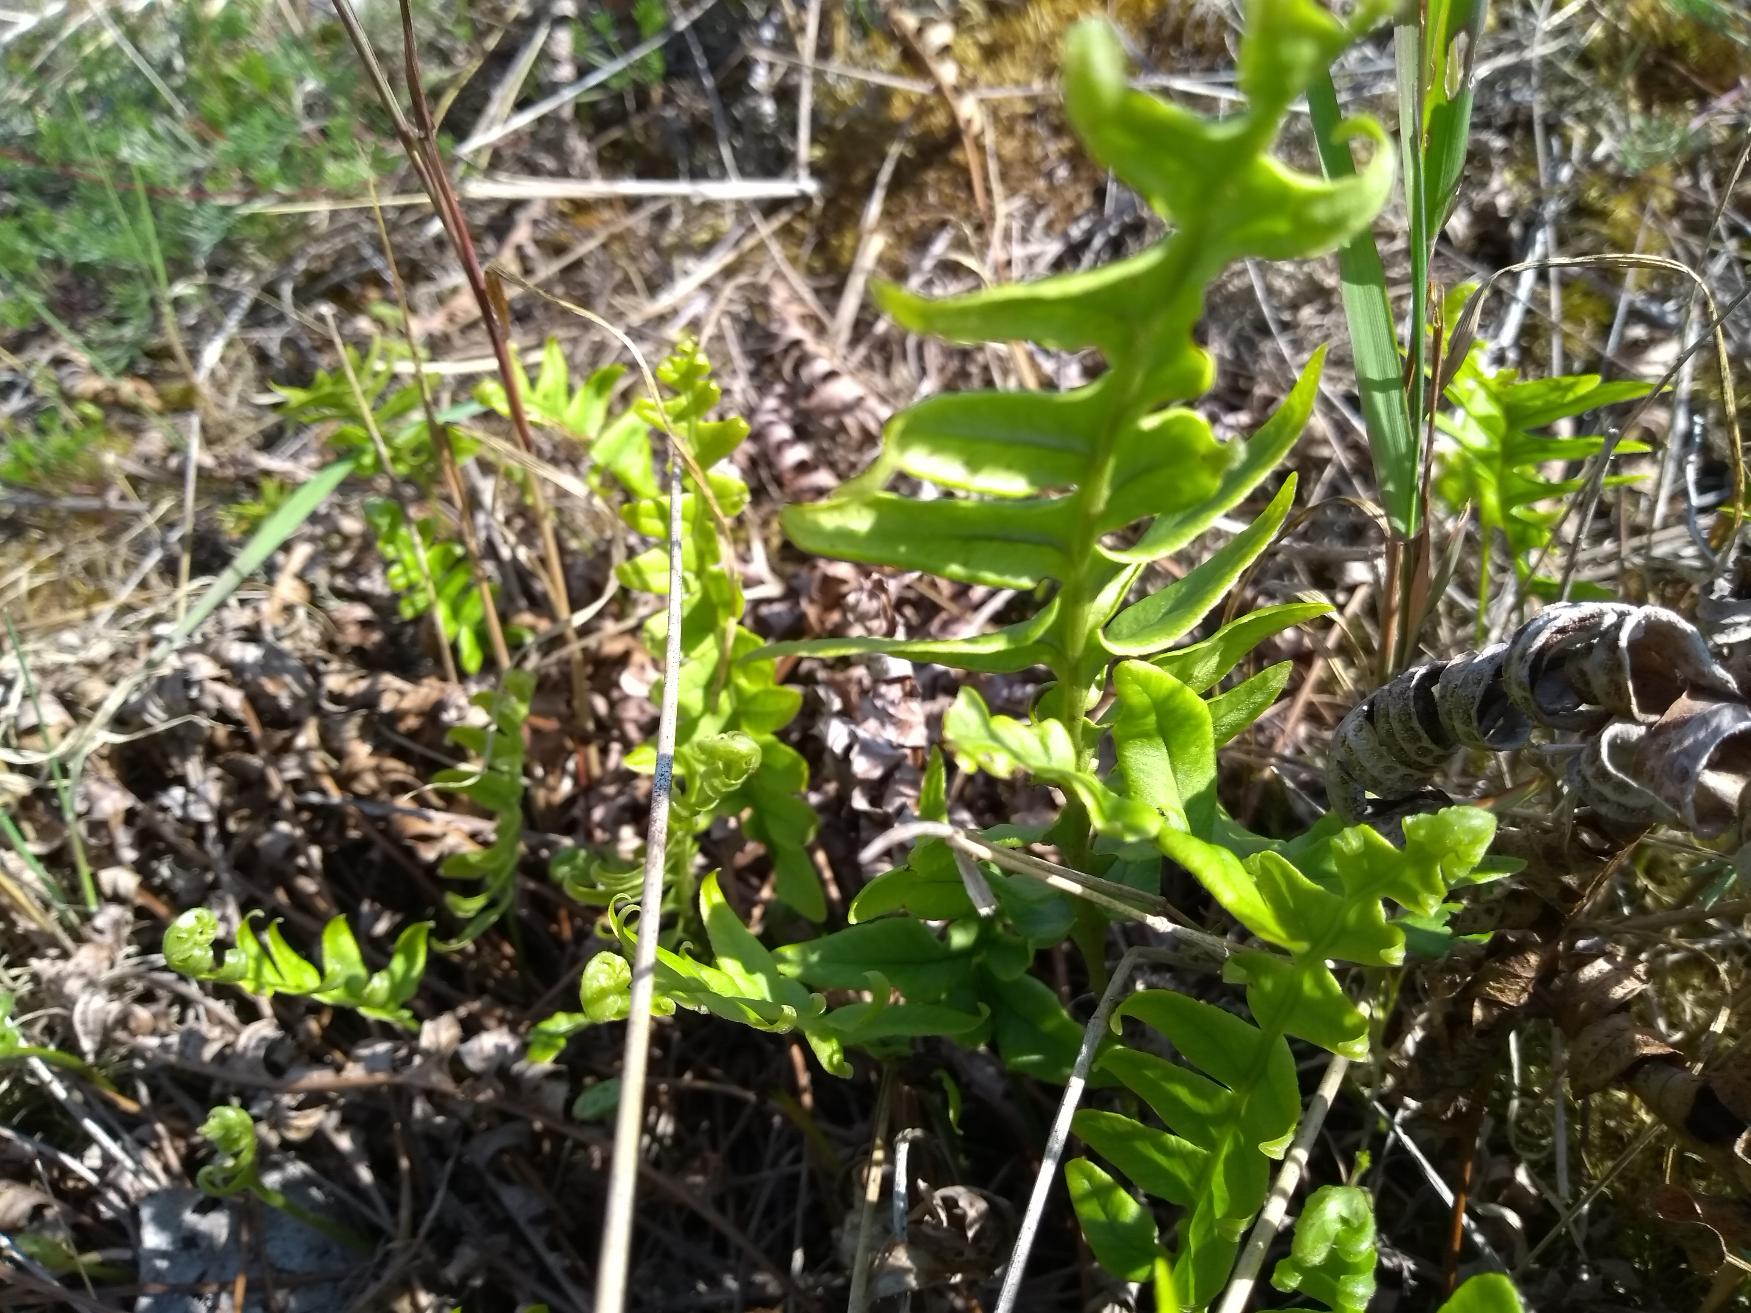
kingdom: Plantae
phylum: Tracheophyta
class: Polypodiopsida
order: Polypodiales
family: Polypodiaceae
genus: Polypodium
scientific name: Polypodium vulgare
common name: Almindelig engelsød
